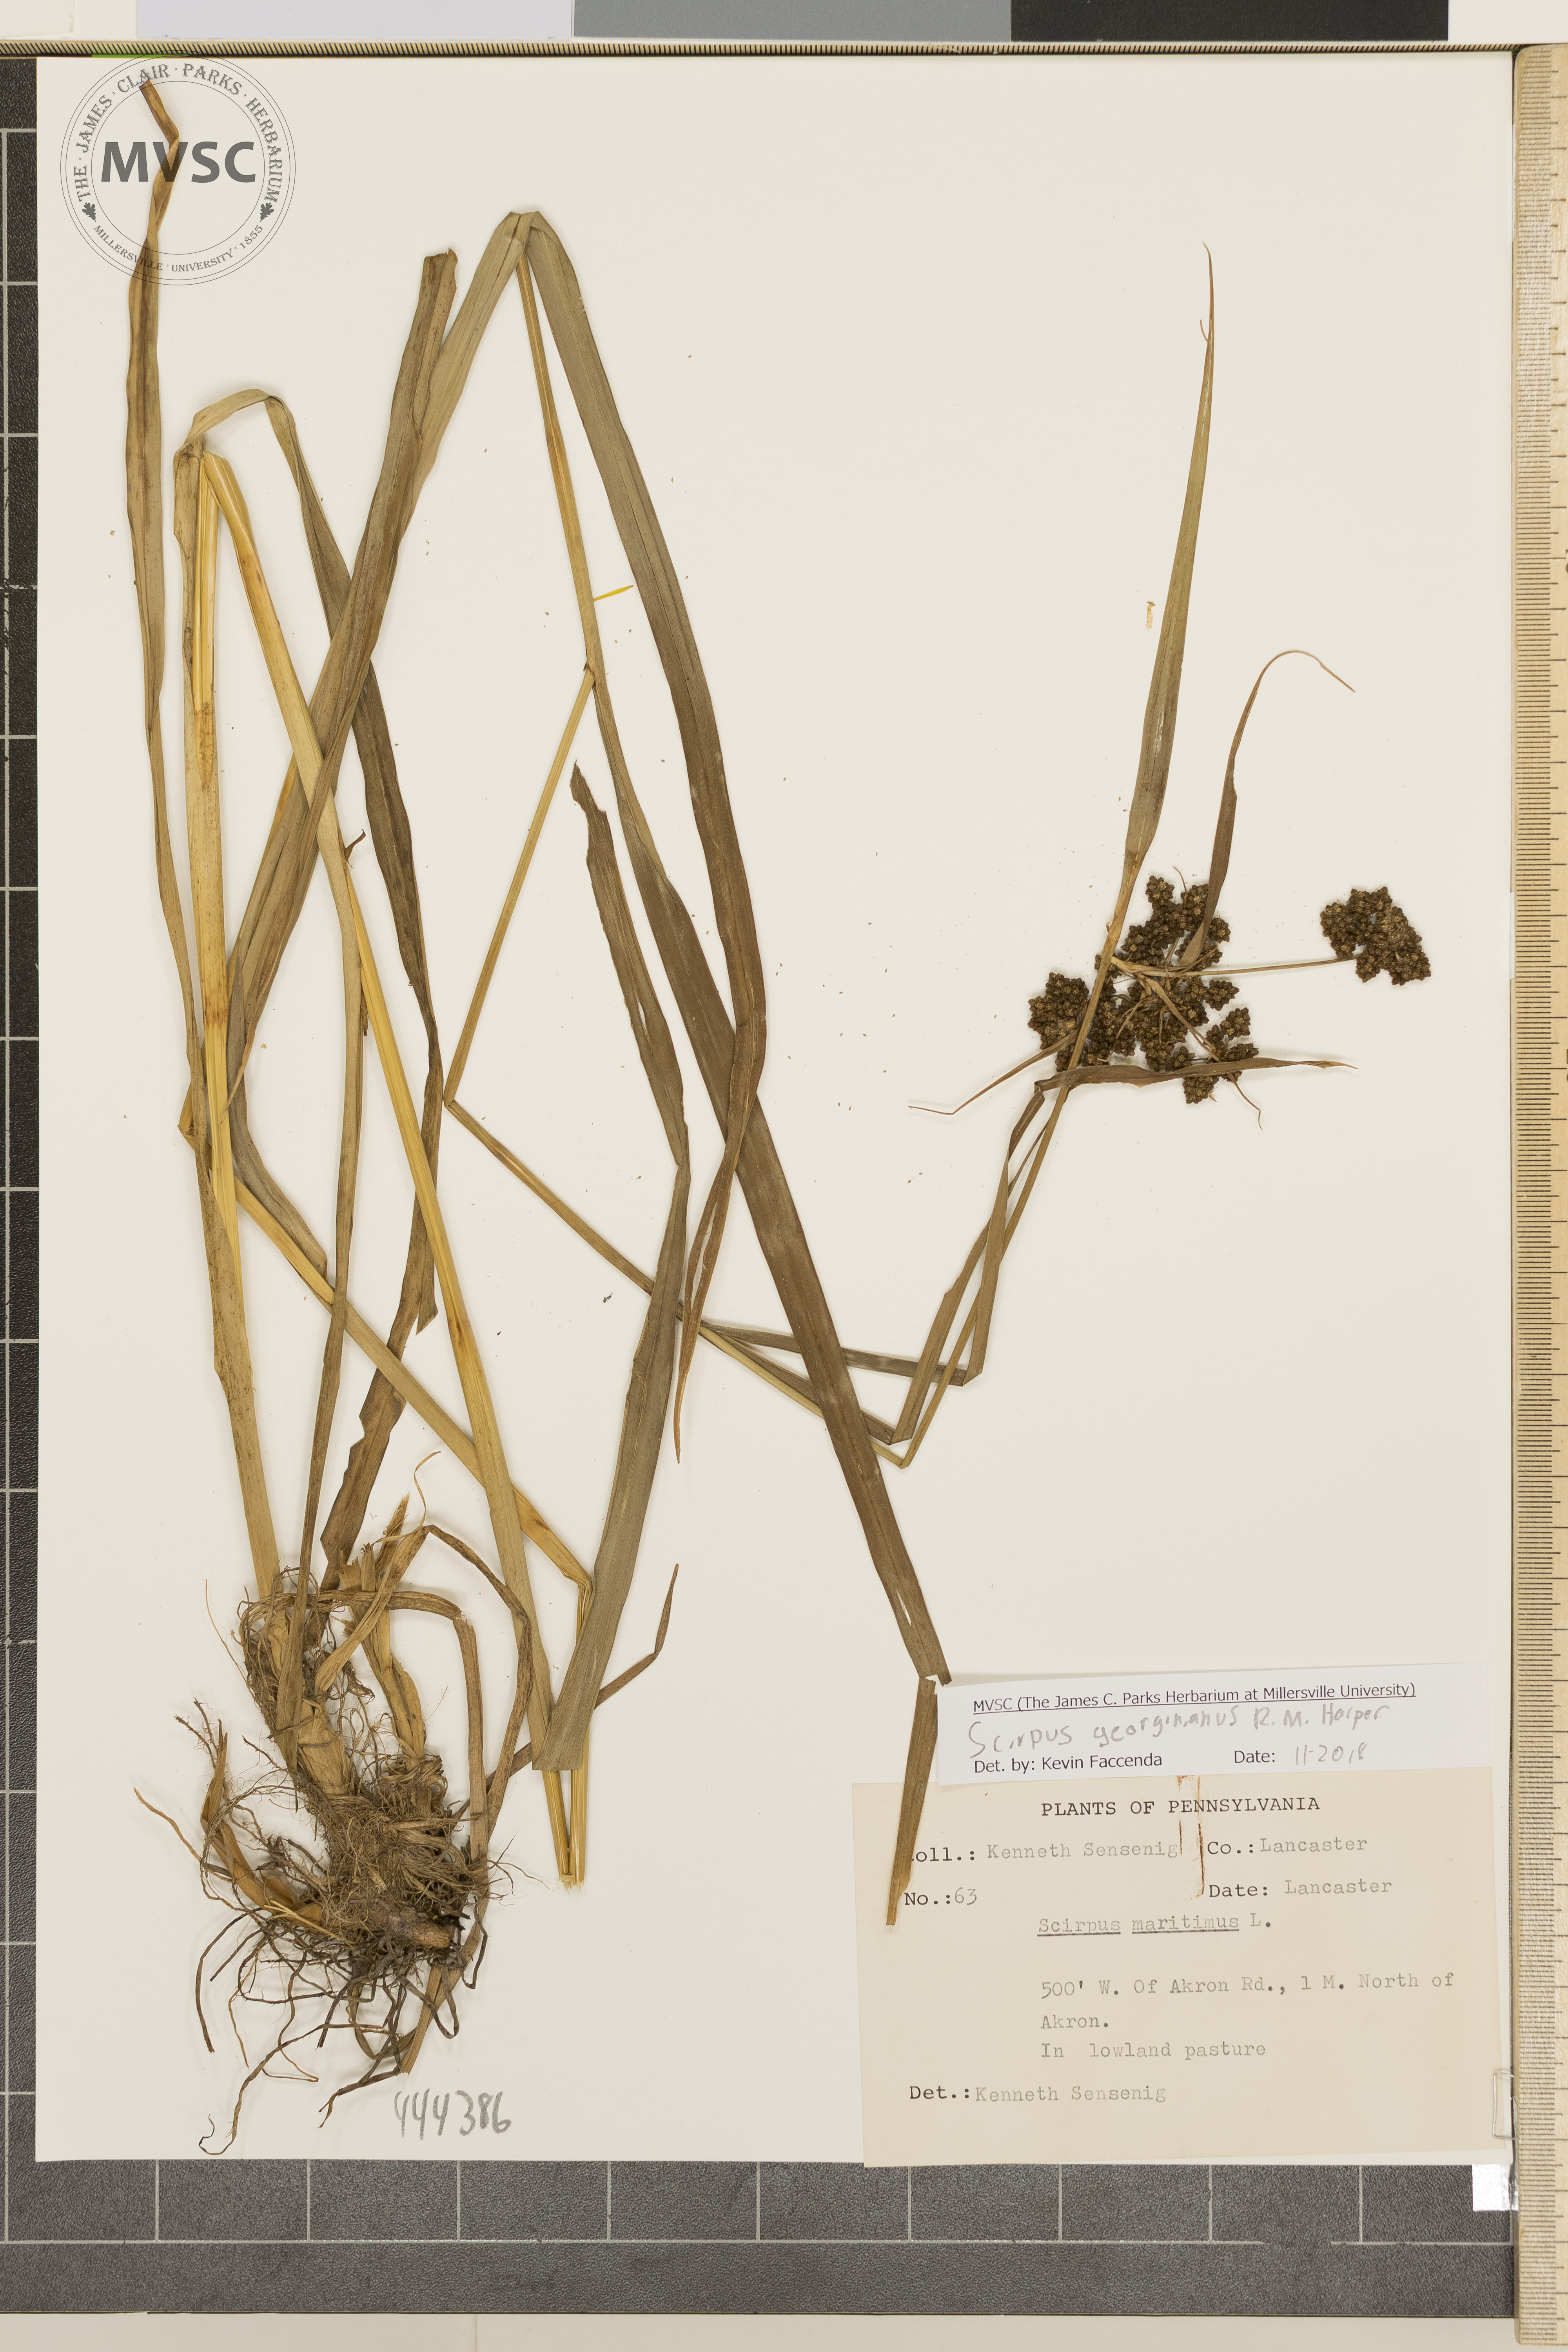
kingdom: Plantae
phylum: Tracheophyta
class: Liliopsida
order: Poales
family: Cyperaceae
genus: Scirpus
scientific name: Scirpus georgianus
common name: Bristleless dark-green bulrush
